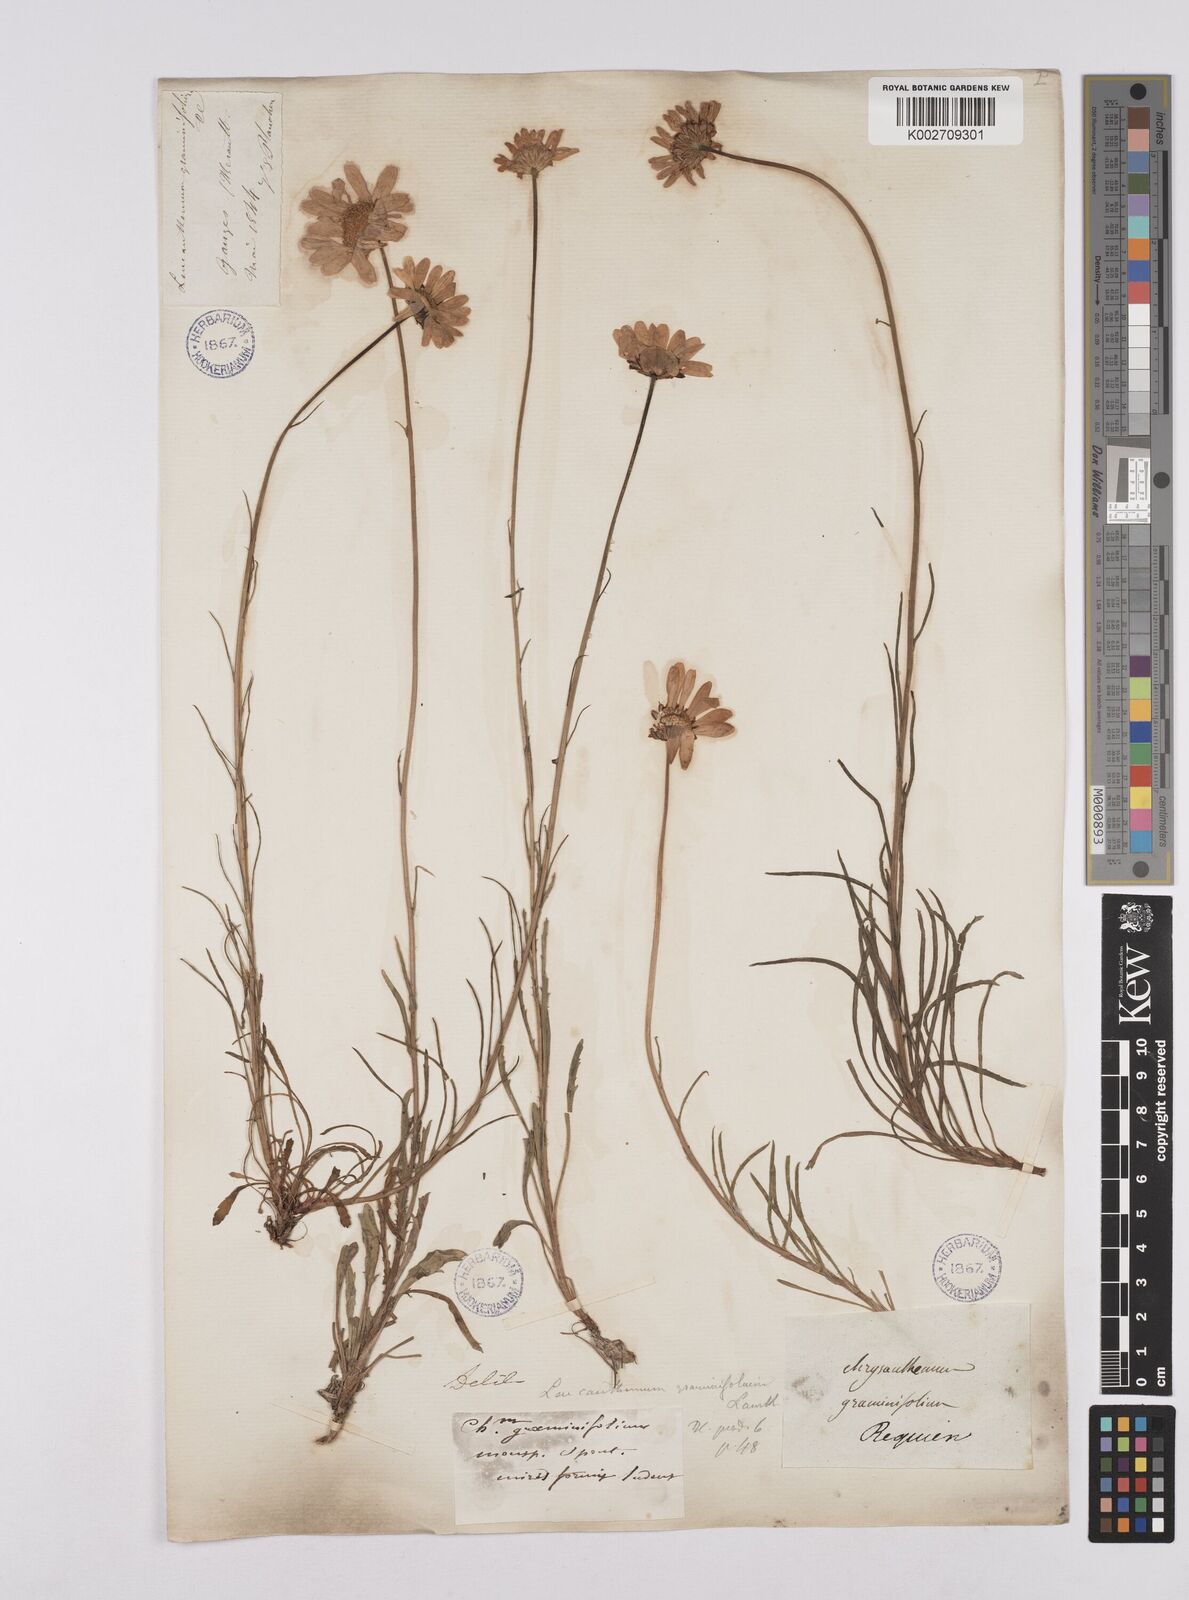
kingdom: Plantae
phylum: Tracheophyta
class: Magnoliopsida
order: Asterales
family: Asteraceae
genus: Leucanthemum
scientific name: Leucanthemum chloroticum
